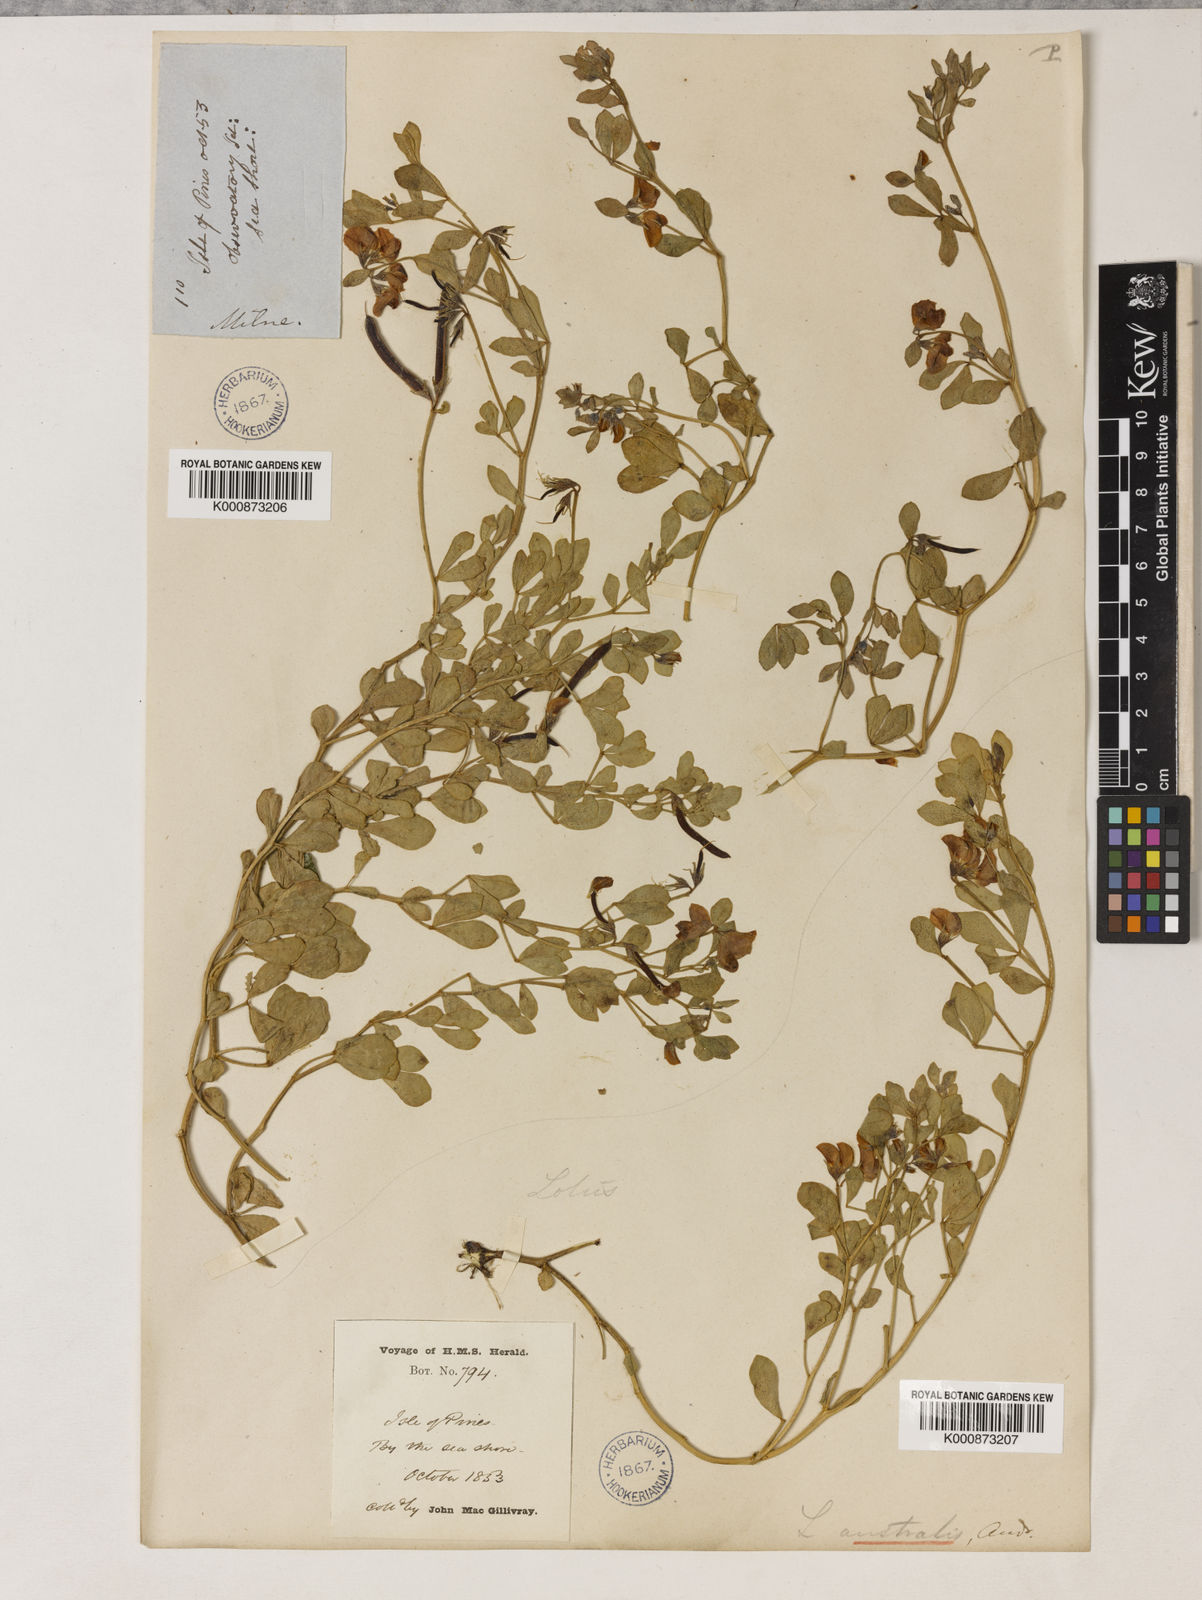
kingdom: Plantae
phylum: Tracheophyta
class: Magnoliopsida
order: Fabales
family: Fabaceae
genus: Lotus
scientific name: Lotus australis
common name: Australian trefoil
